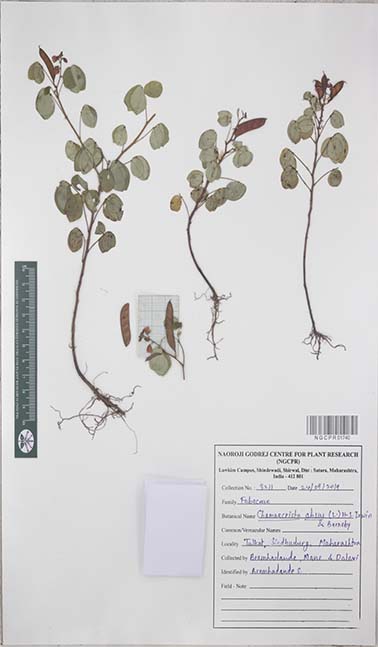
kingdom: Plantae
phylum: Tracheophyta
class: Magnoliopsida
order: Fabales
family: Fabaceae
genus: Chamaecrista
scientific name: Chamaecrista absus
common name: Tropical sensitive pea
